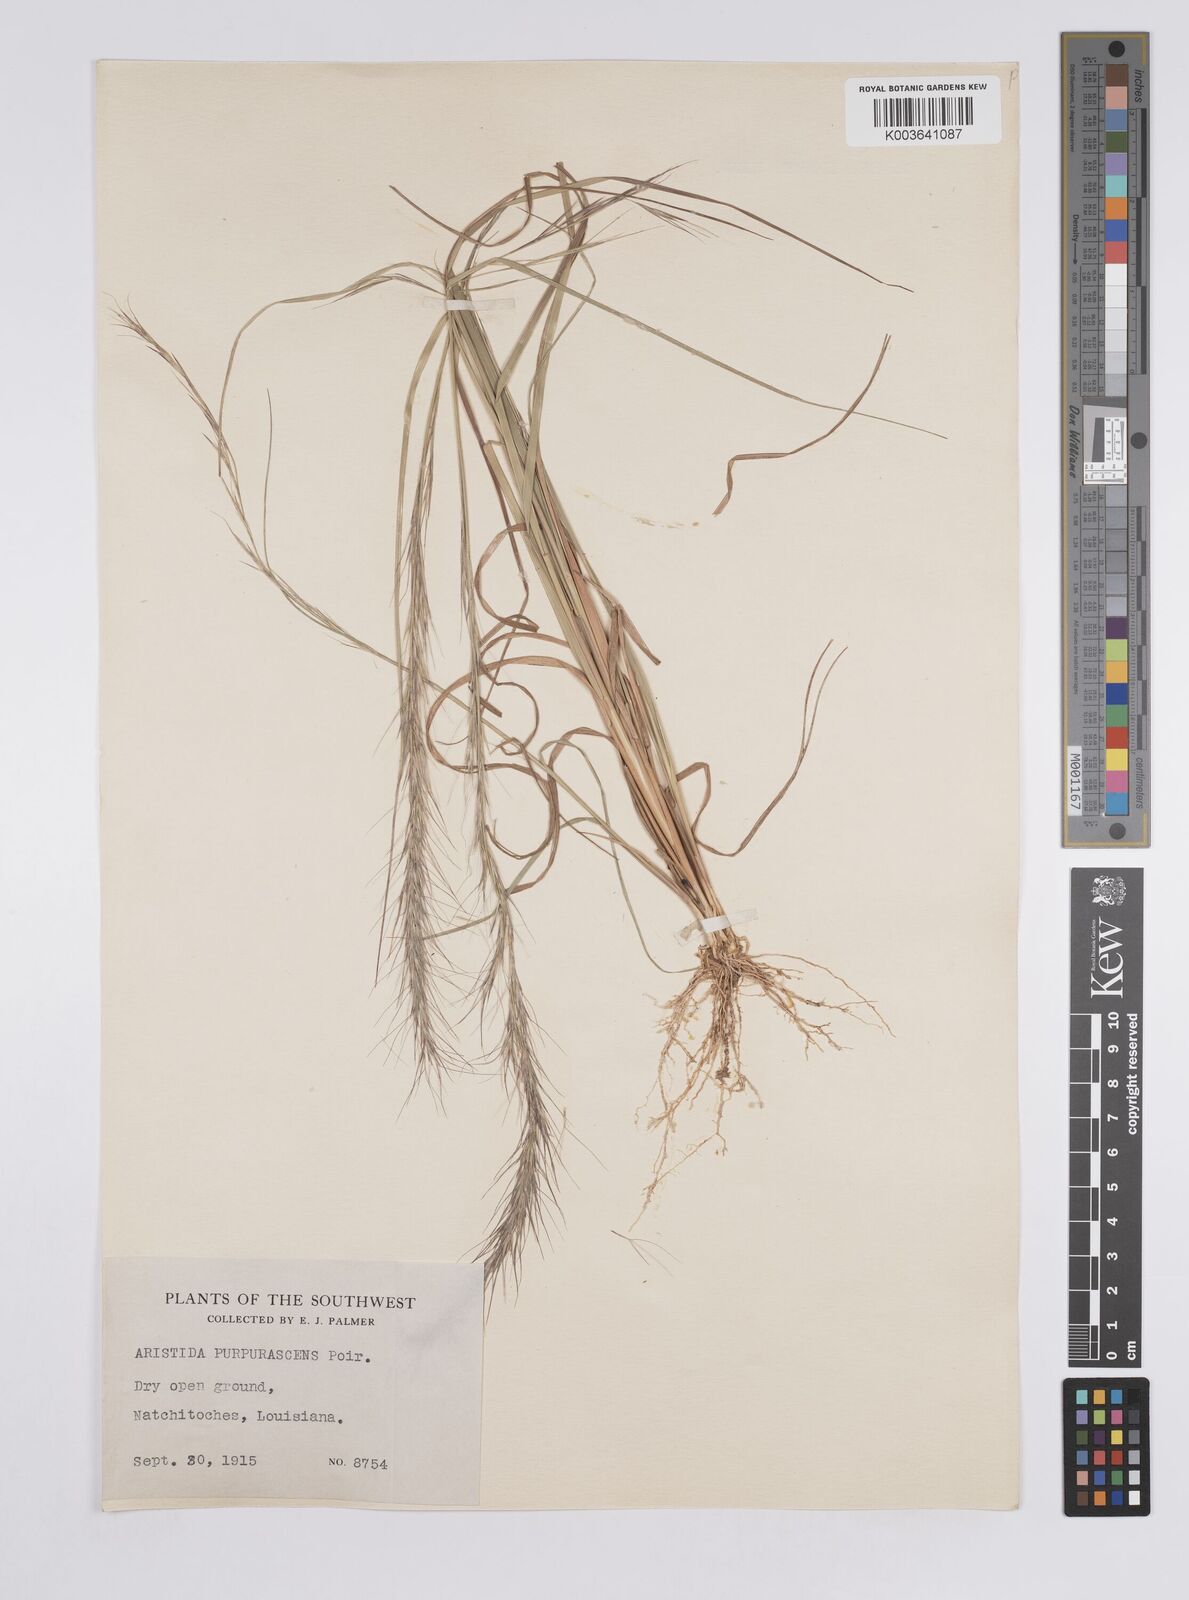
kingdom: Plantae
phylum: Tracheophyta
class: Liliopsida
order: Poales
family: Poaceae
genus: Aristida
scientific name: Aristida purpurascens
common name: Arrow-feather
